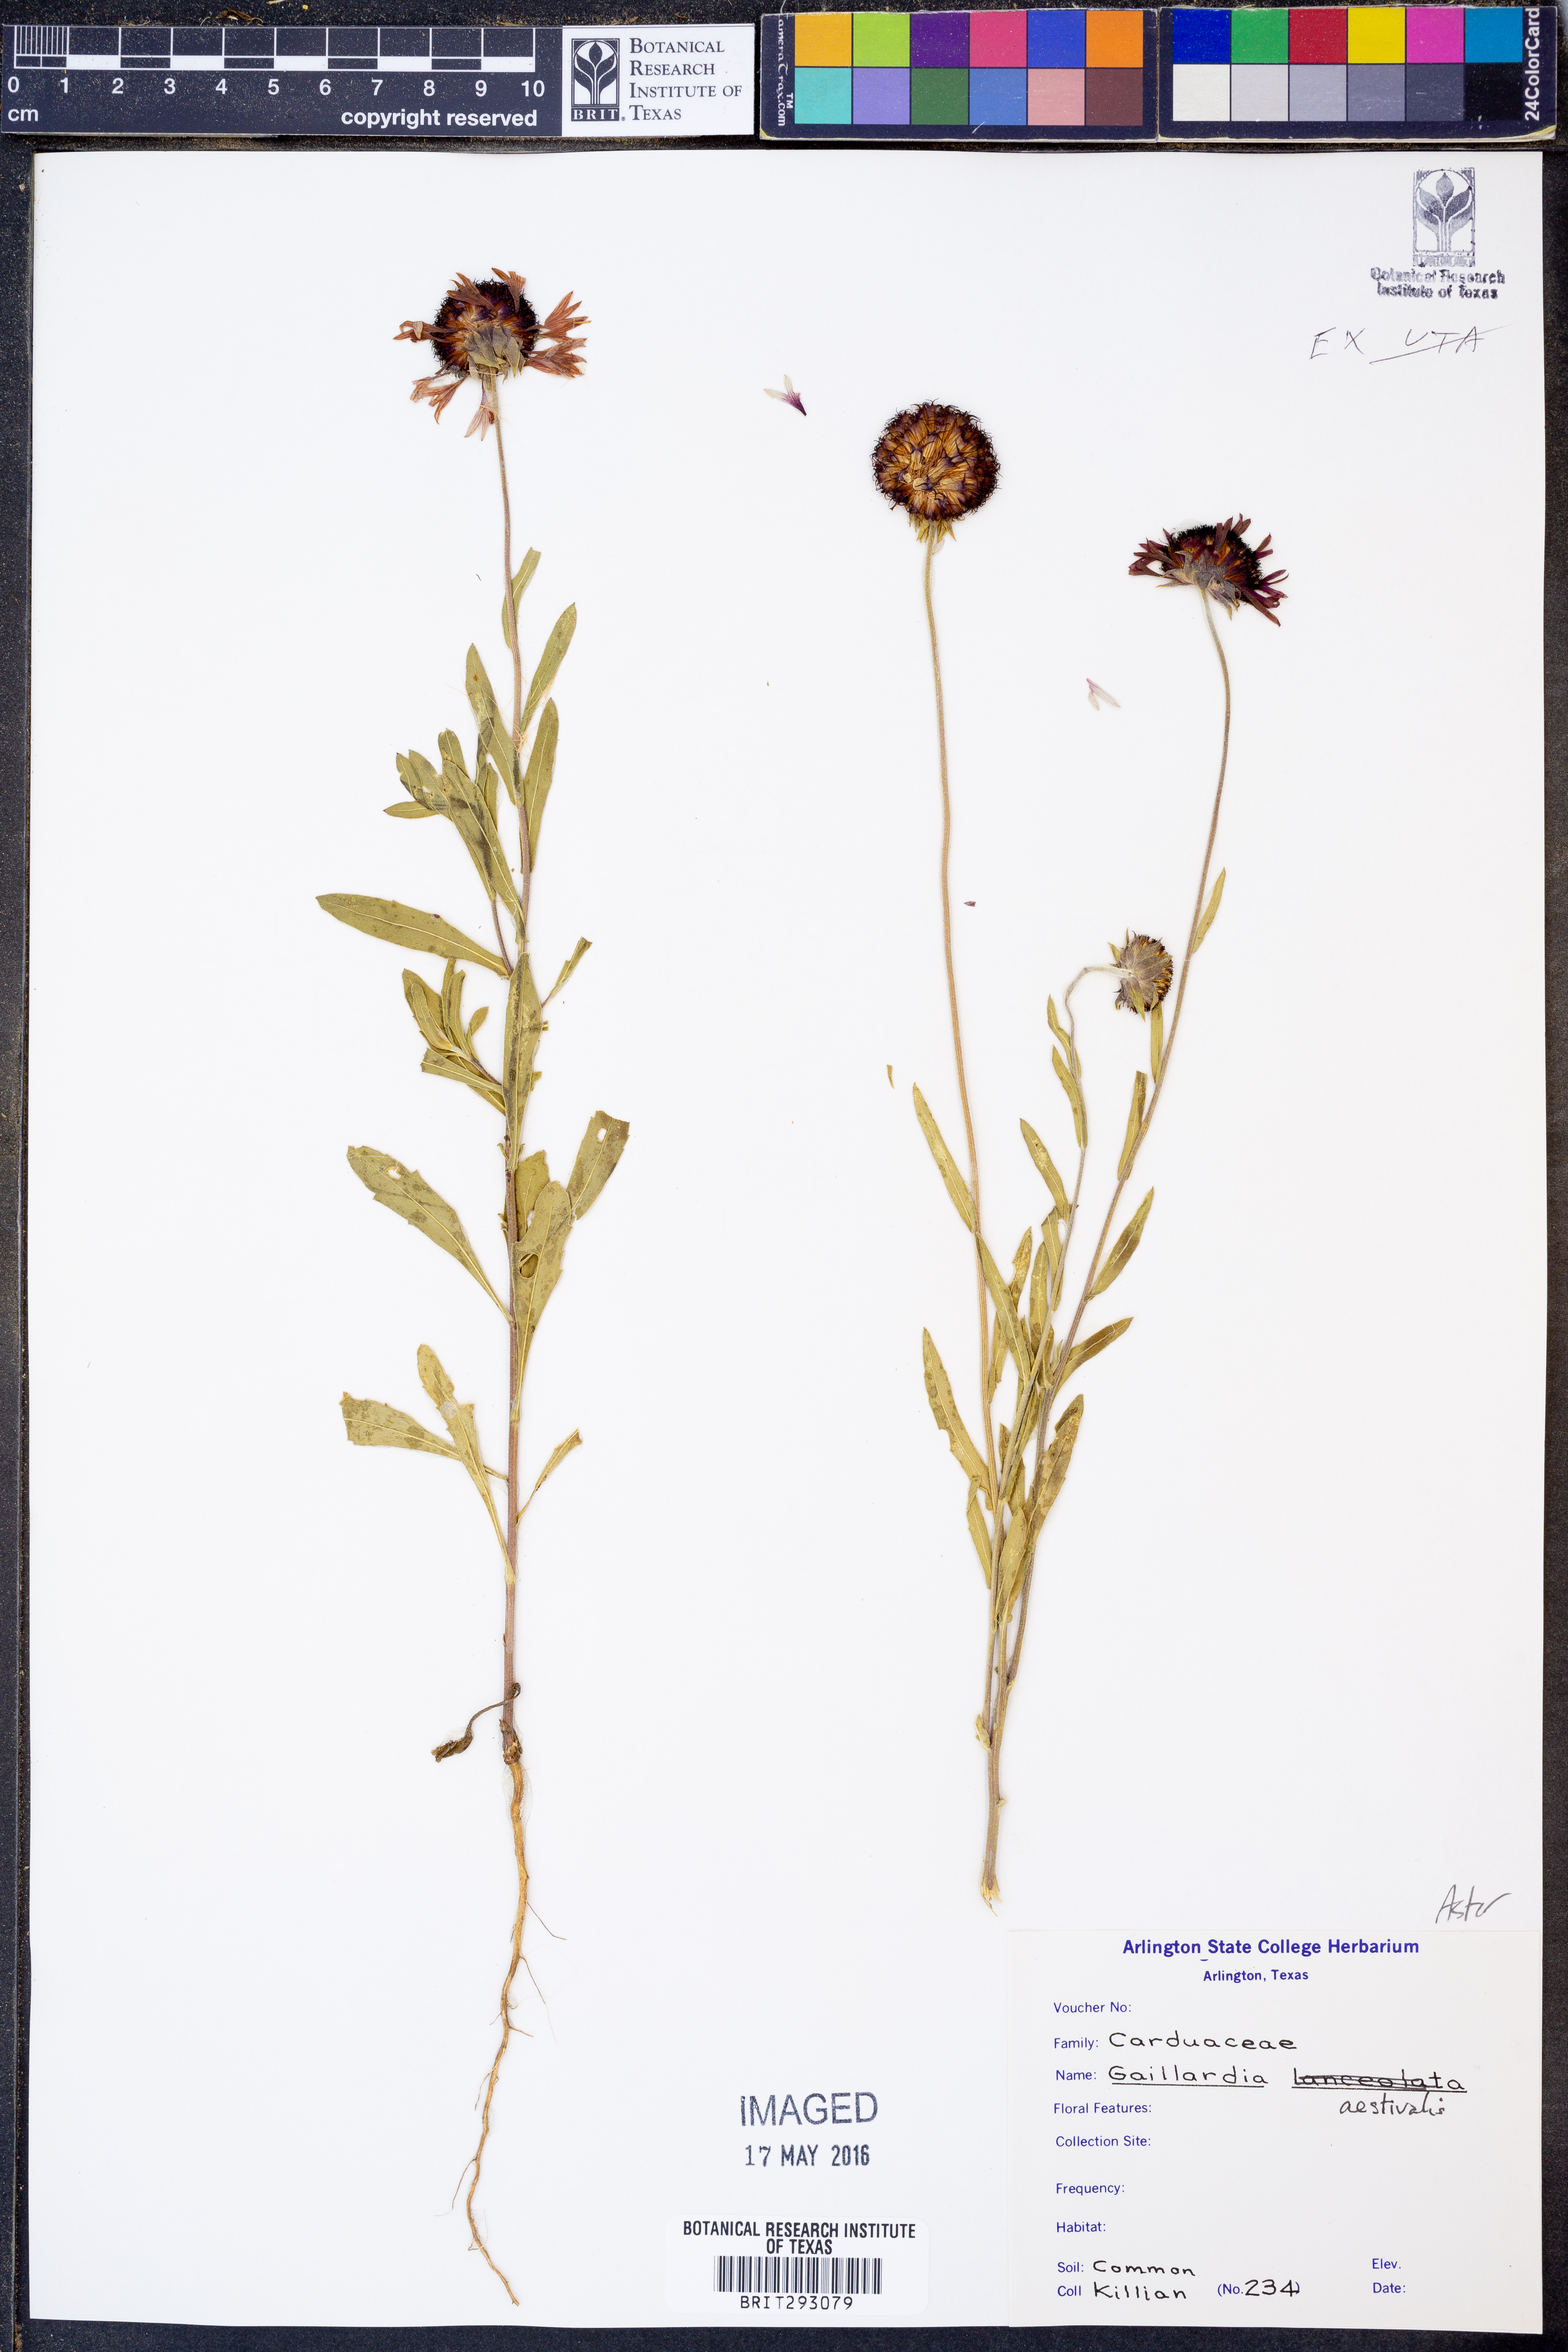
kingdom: Plantae
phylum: Tracheophyta
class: Magnoliopsida
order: Asterales
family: Asteraceae
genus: Gaillardia
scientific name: Gaillardia aestivalis
